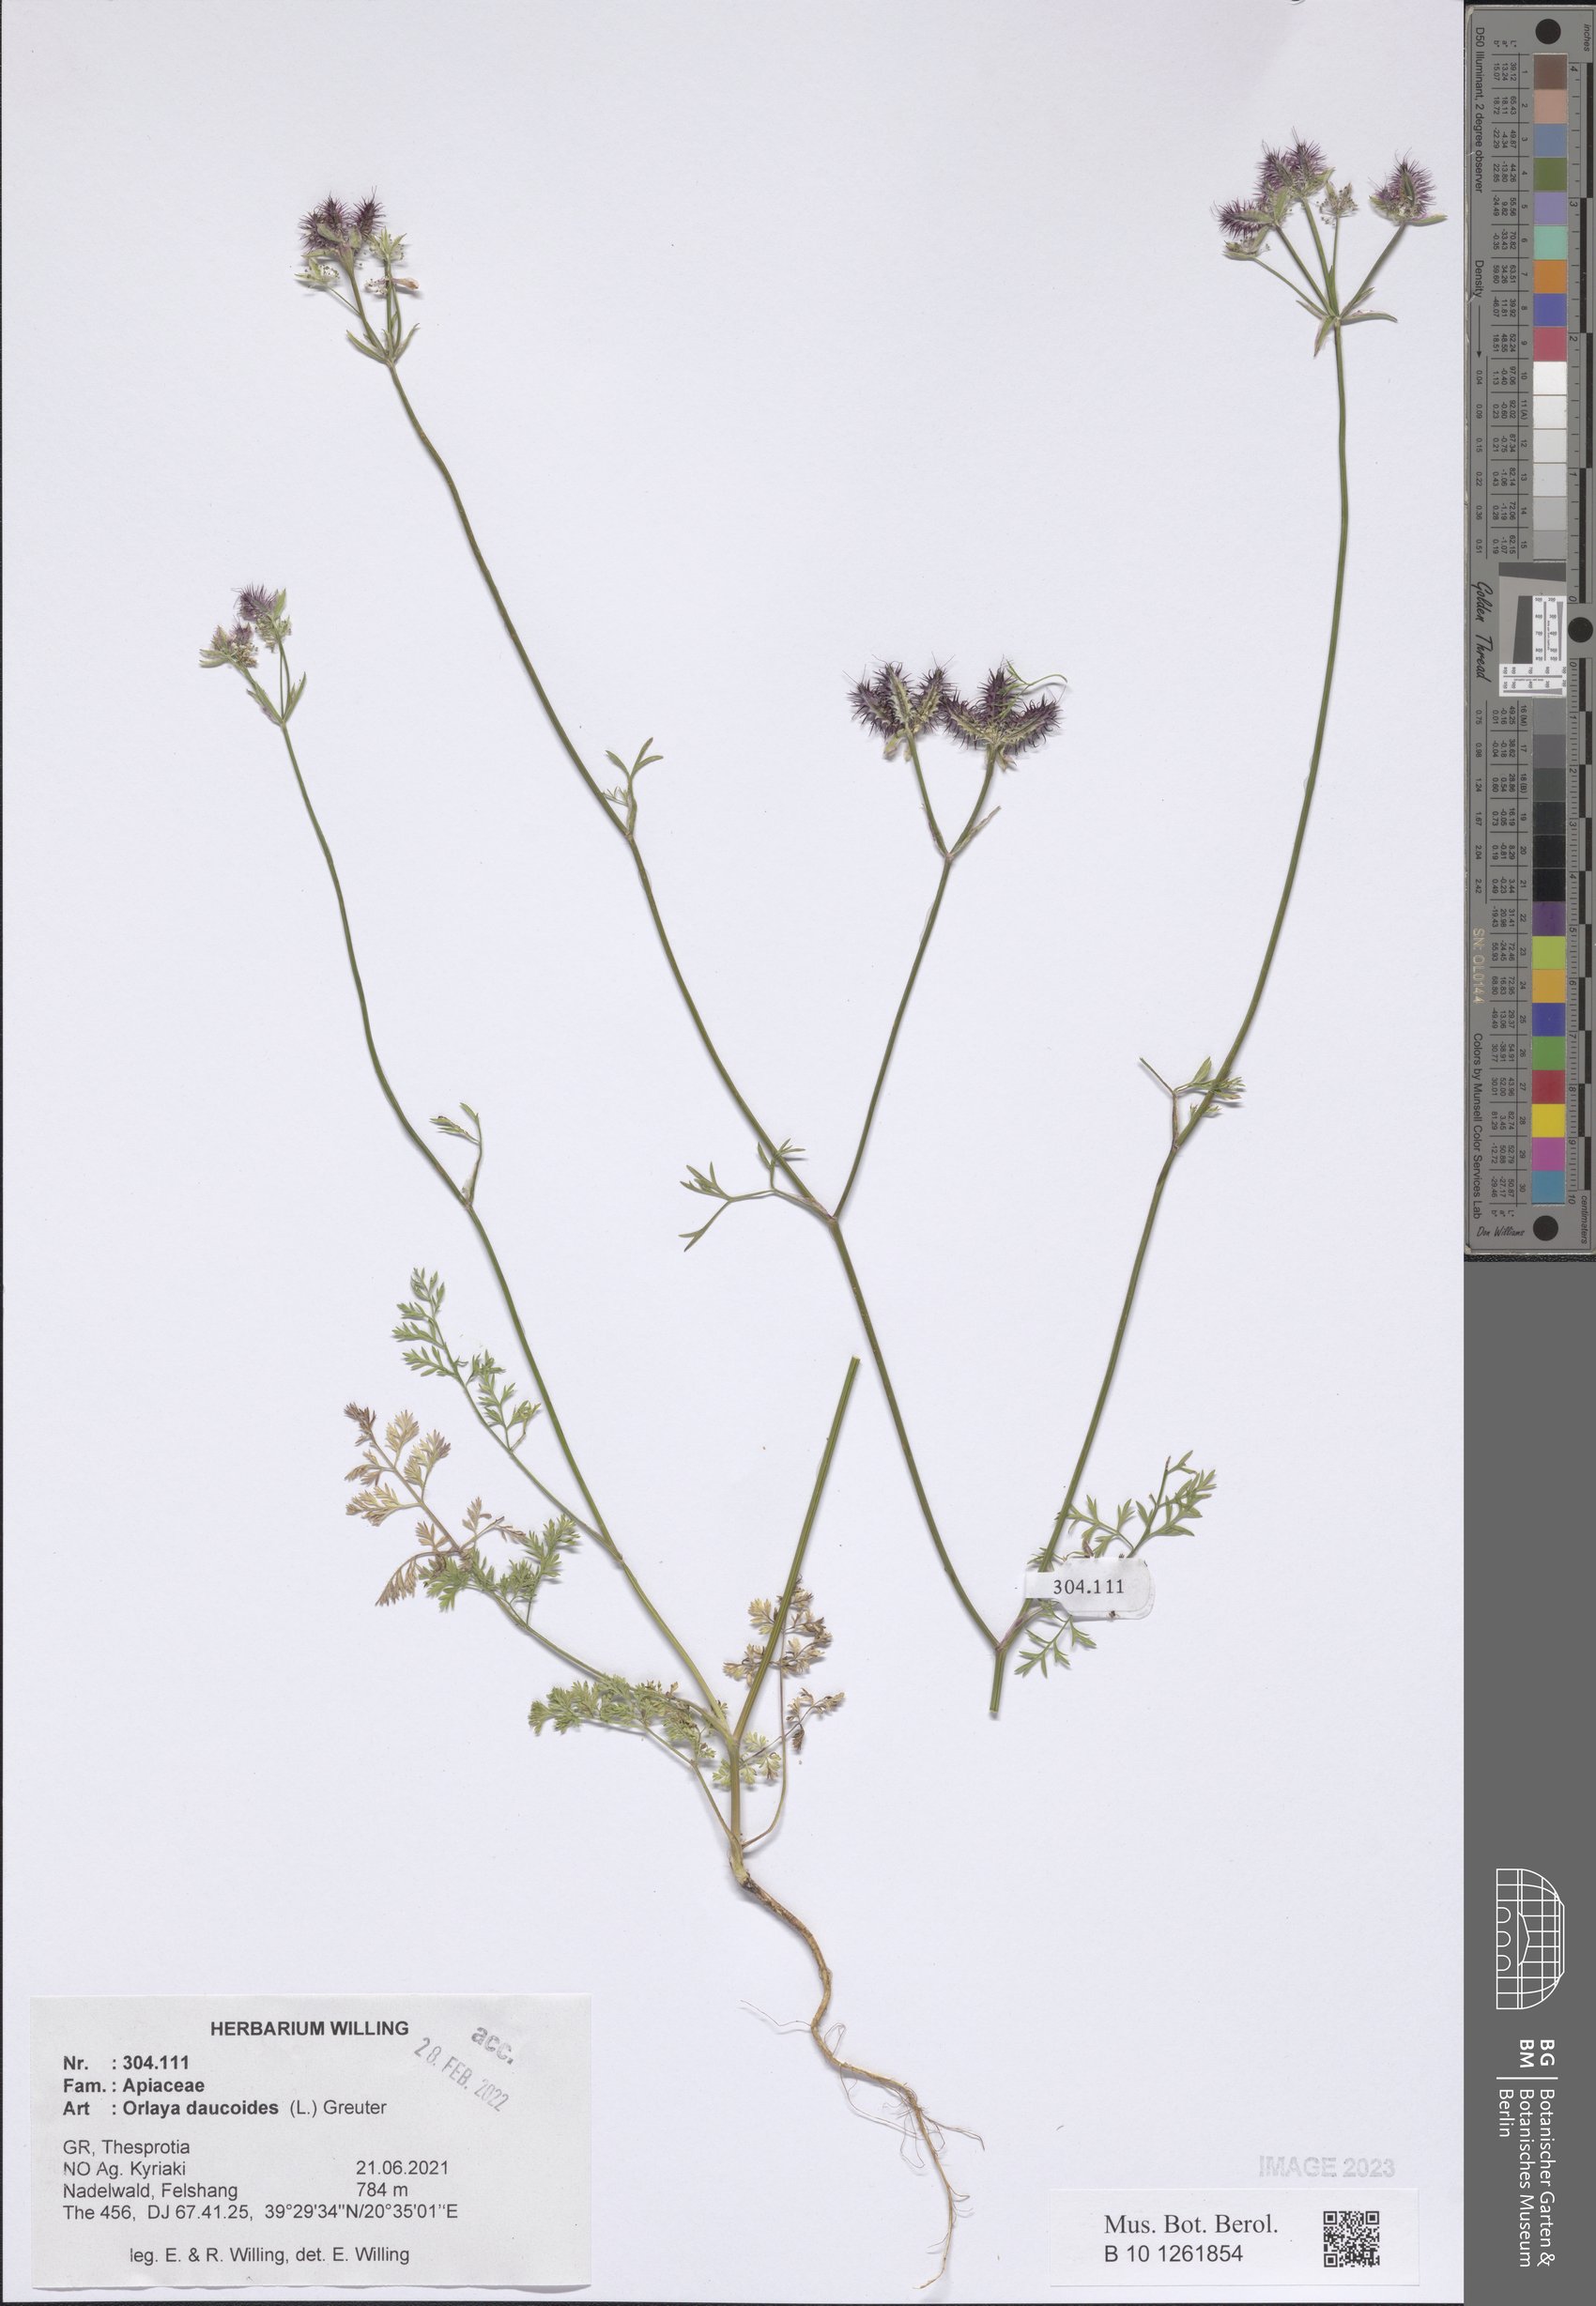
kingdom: Plantae
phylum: Tracheophyta
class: Magnoliopsida
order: Apiales
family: Apiaceae
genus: Orlaya
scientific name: Orlaya daucoides
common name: Flat-fruit orlaya
